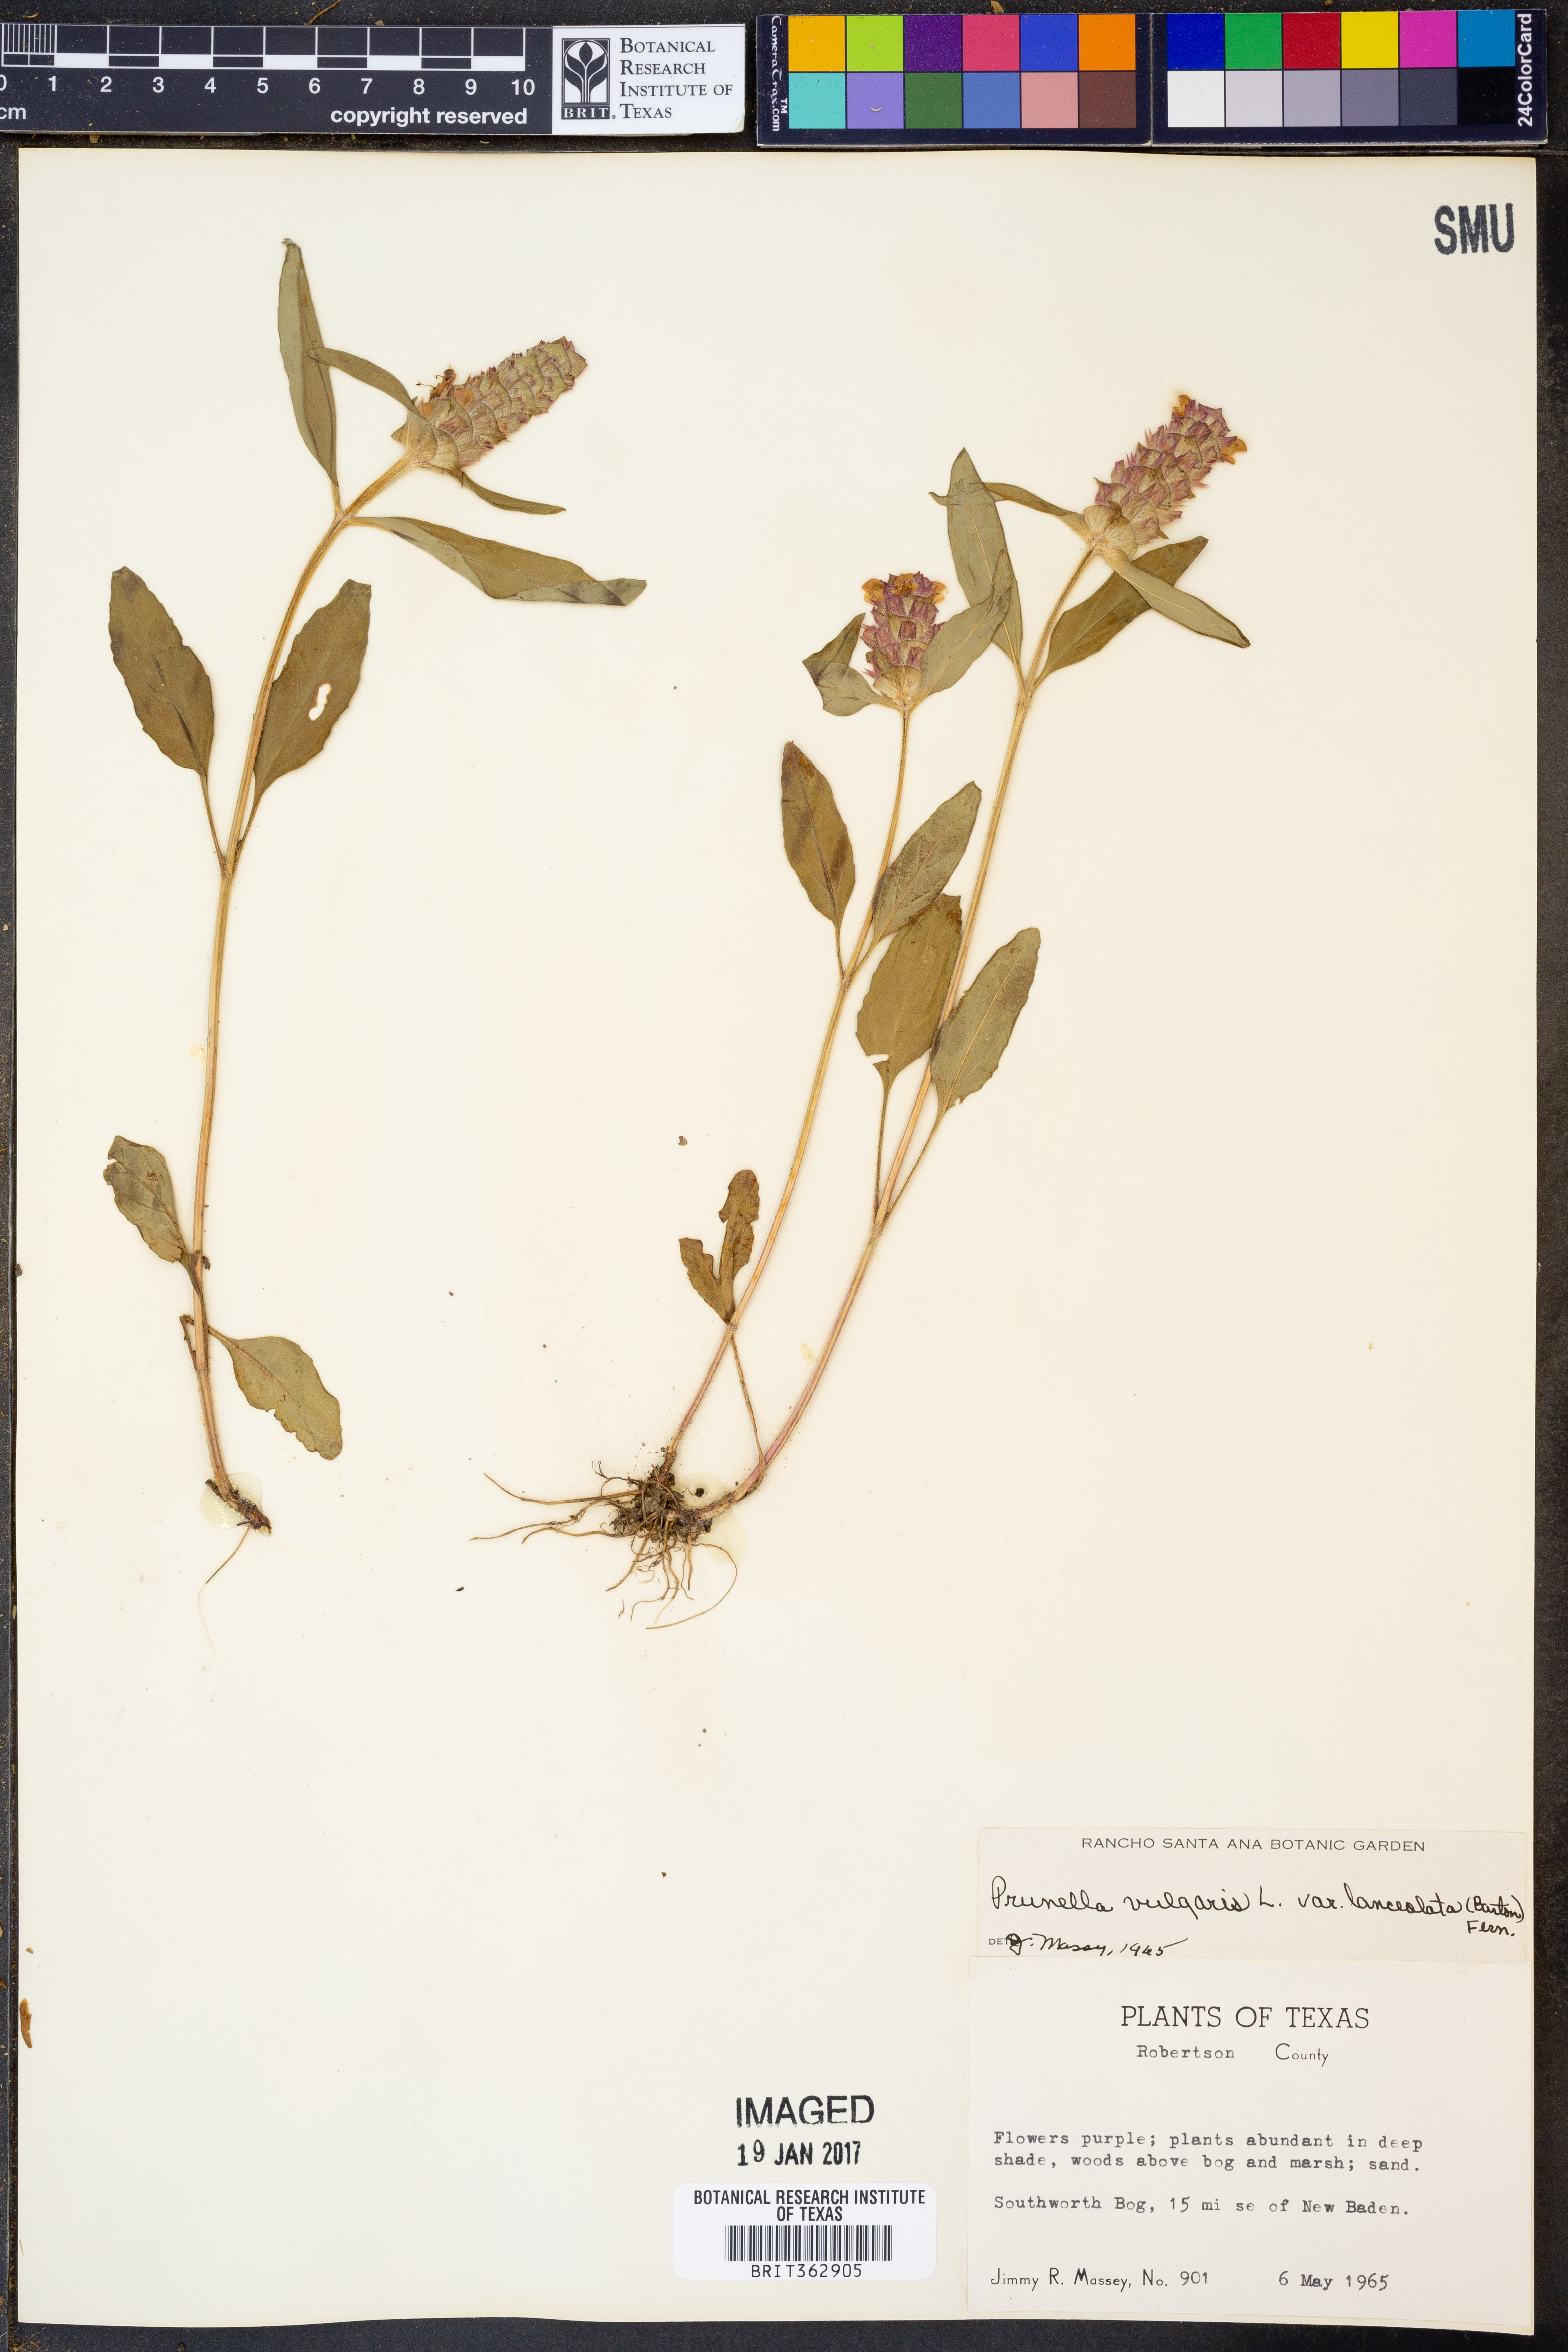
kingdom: Plantae
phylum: Tracheophyta
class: Magnoliopsida
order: Lamiales
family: Lamiaceae
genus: Prunella
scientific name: Prunella vulgaris
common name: Heal-all
